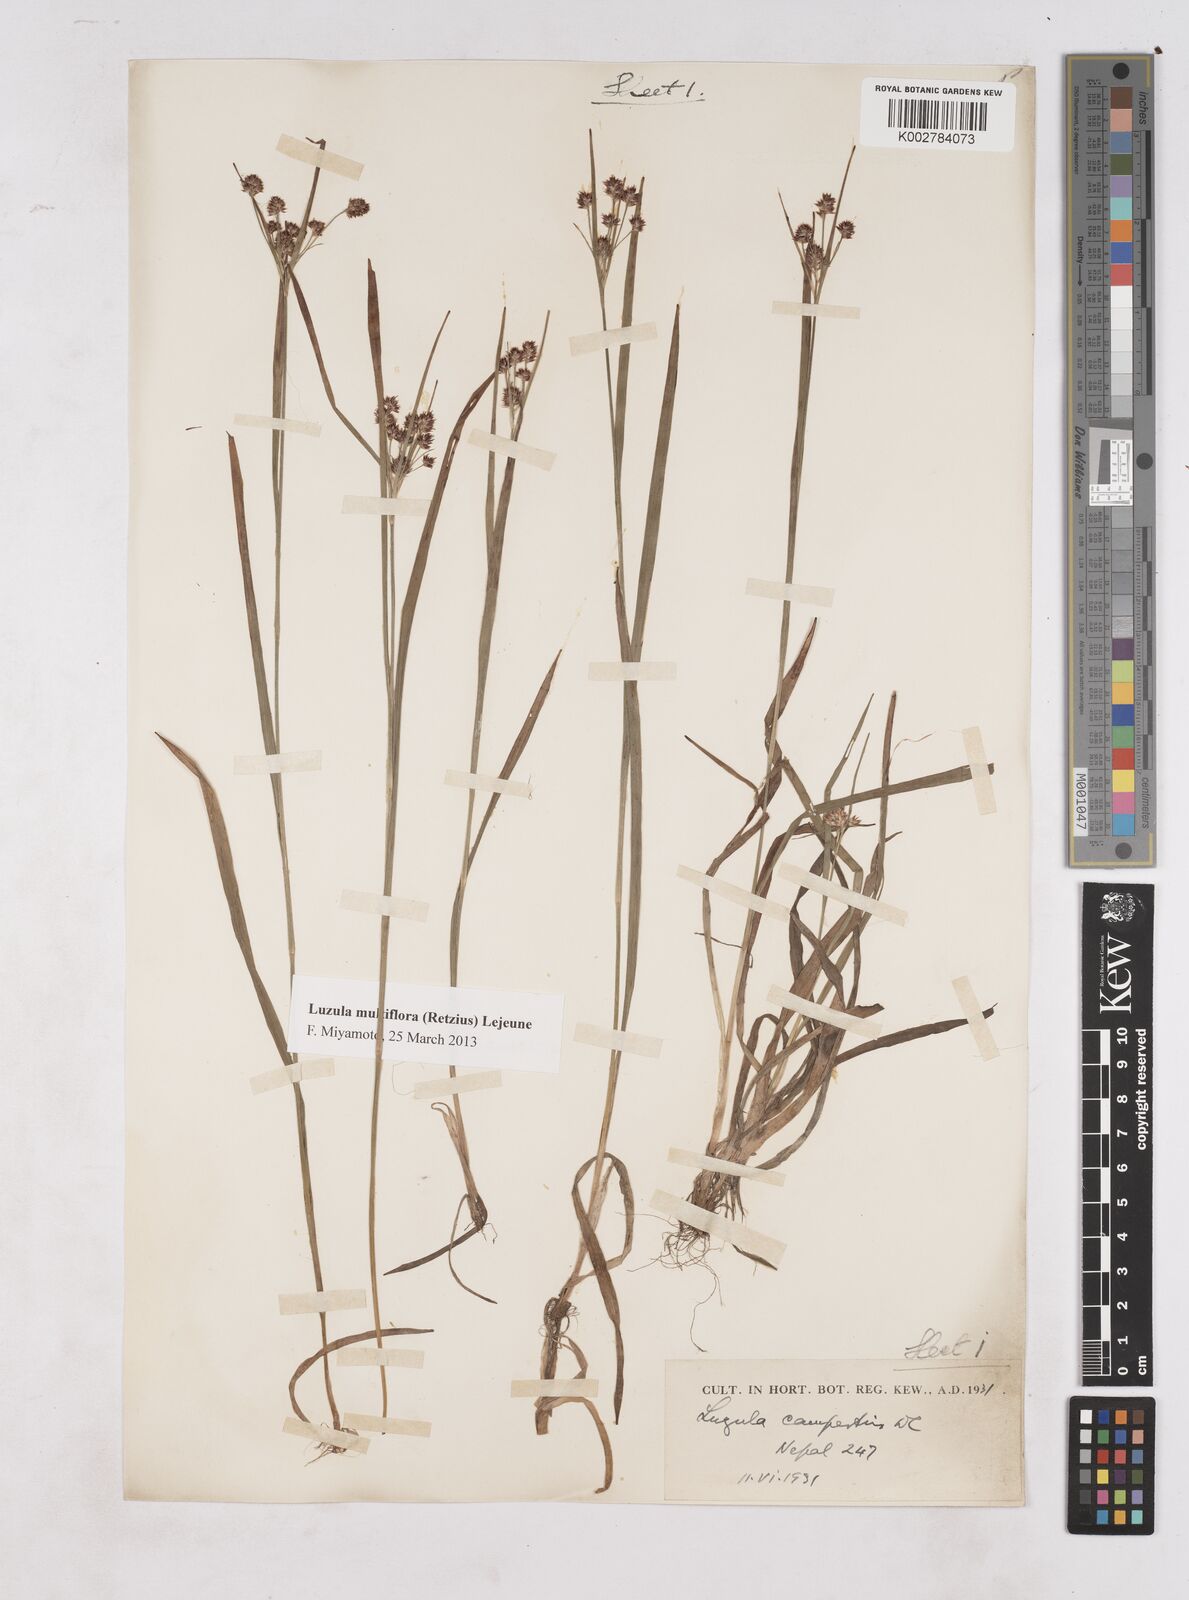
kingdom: Plantae
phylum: Tracheophyta
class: Liliopsida
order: Poales
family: Juncaceae
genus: Luzula
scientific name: Luzula campestris
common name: Field wood-rush
